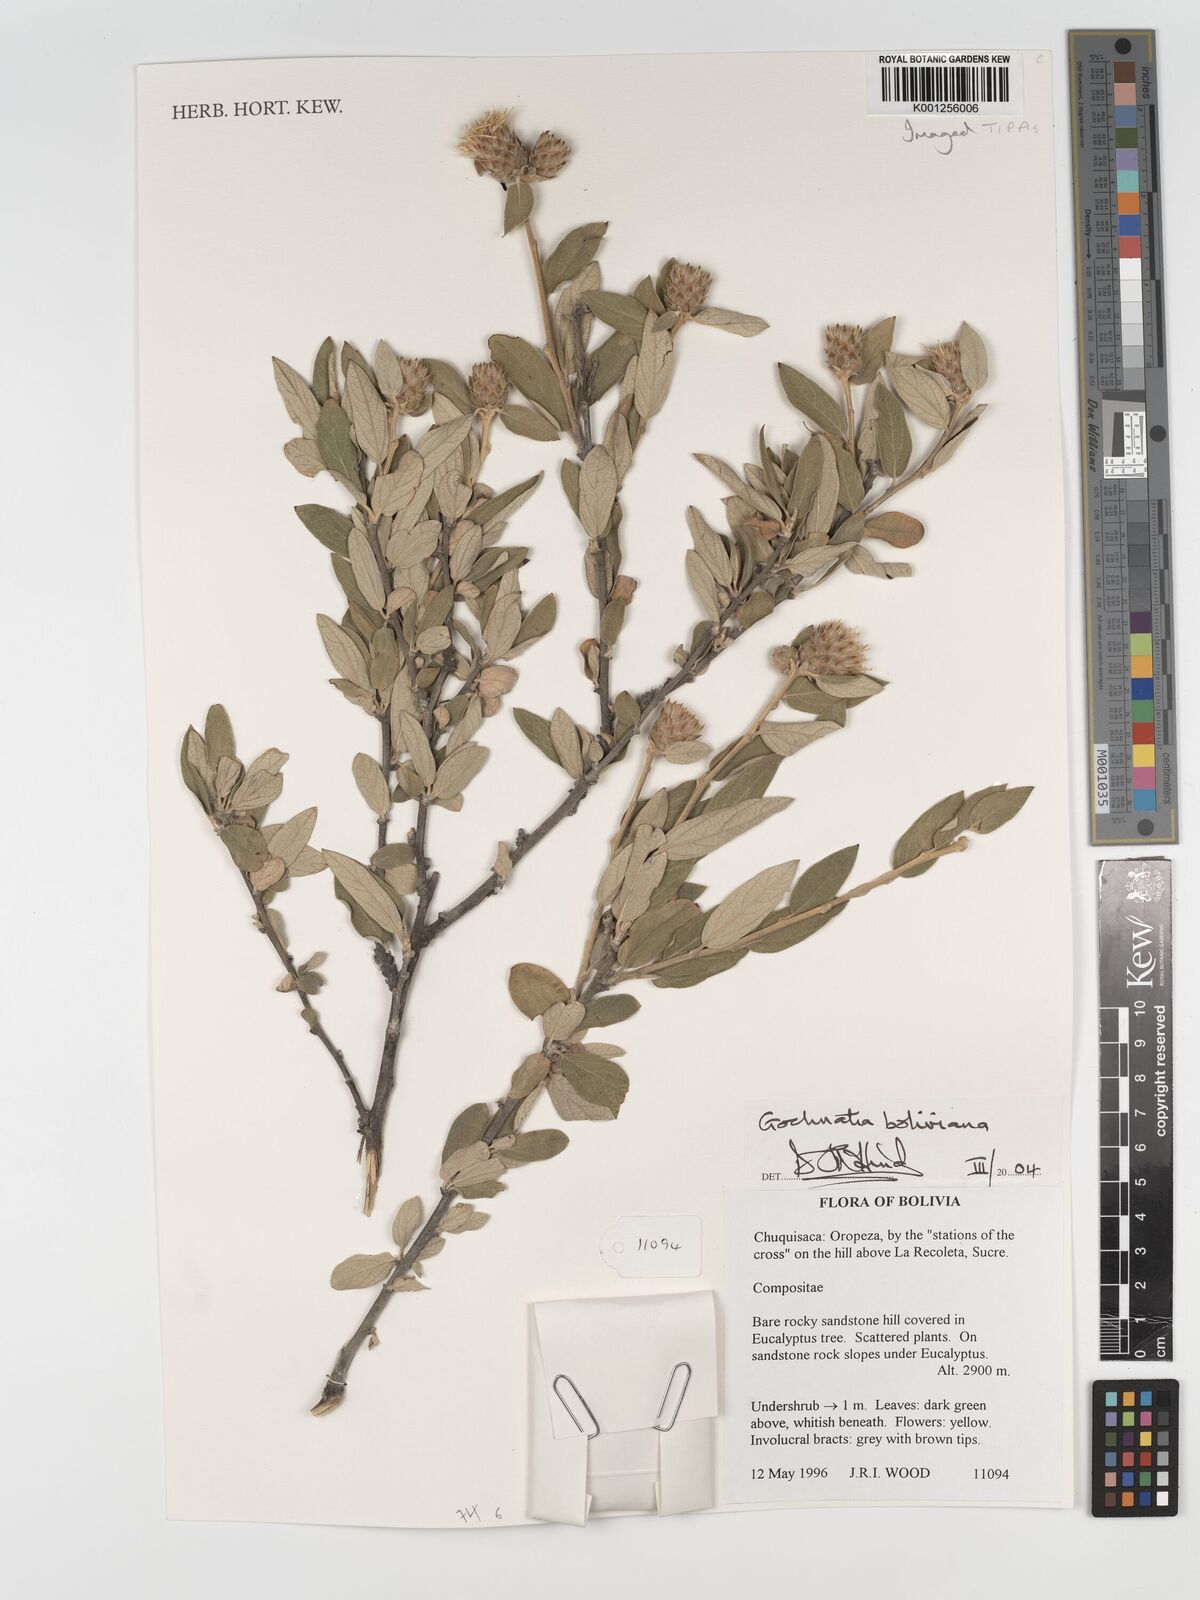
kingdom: Plantae
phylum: Tracheophyta
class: Magnoliopsida
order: Asterales
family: Asteraceae
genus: Gochnatia
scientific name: Gochnatia boliviana
